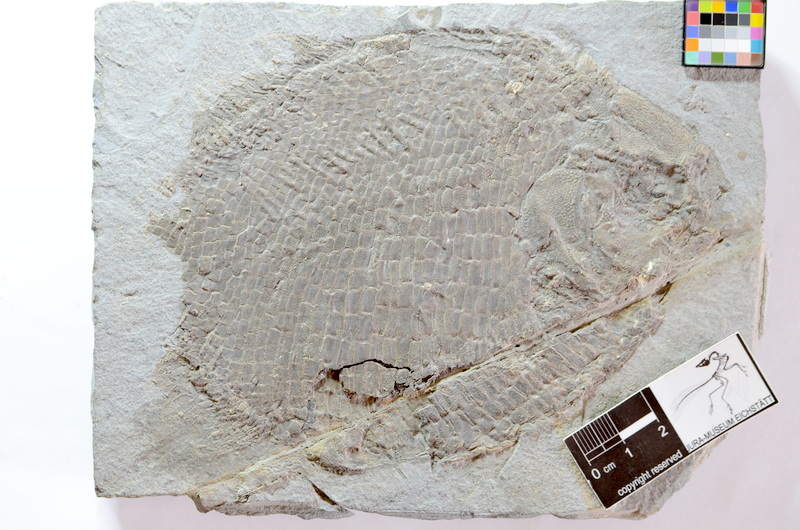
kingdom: Animalia
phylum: Chordata
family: Dapediidae
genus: Dapedium
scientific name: Dapedium
